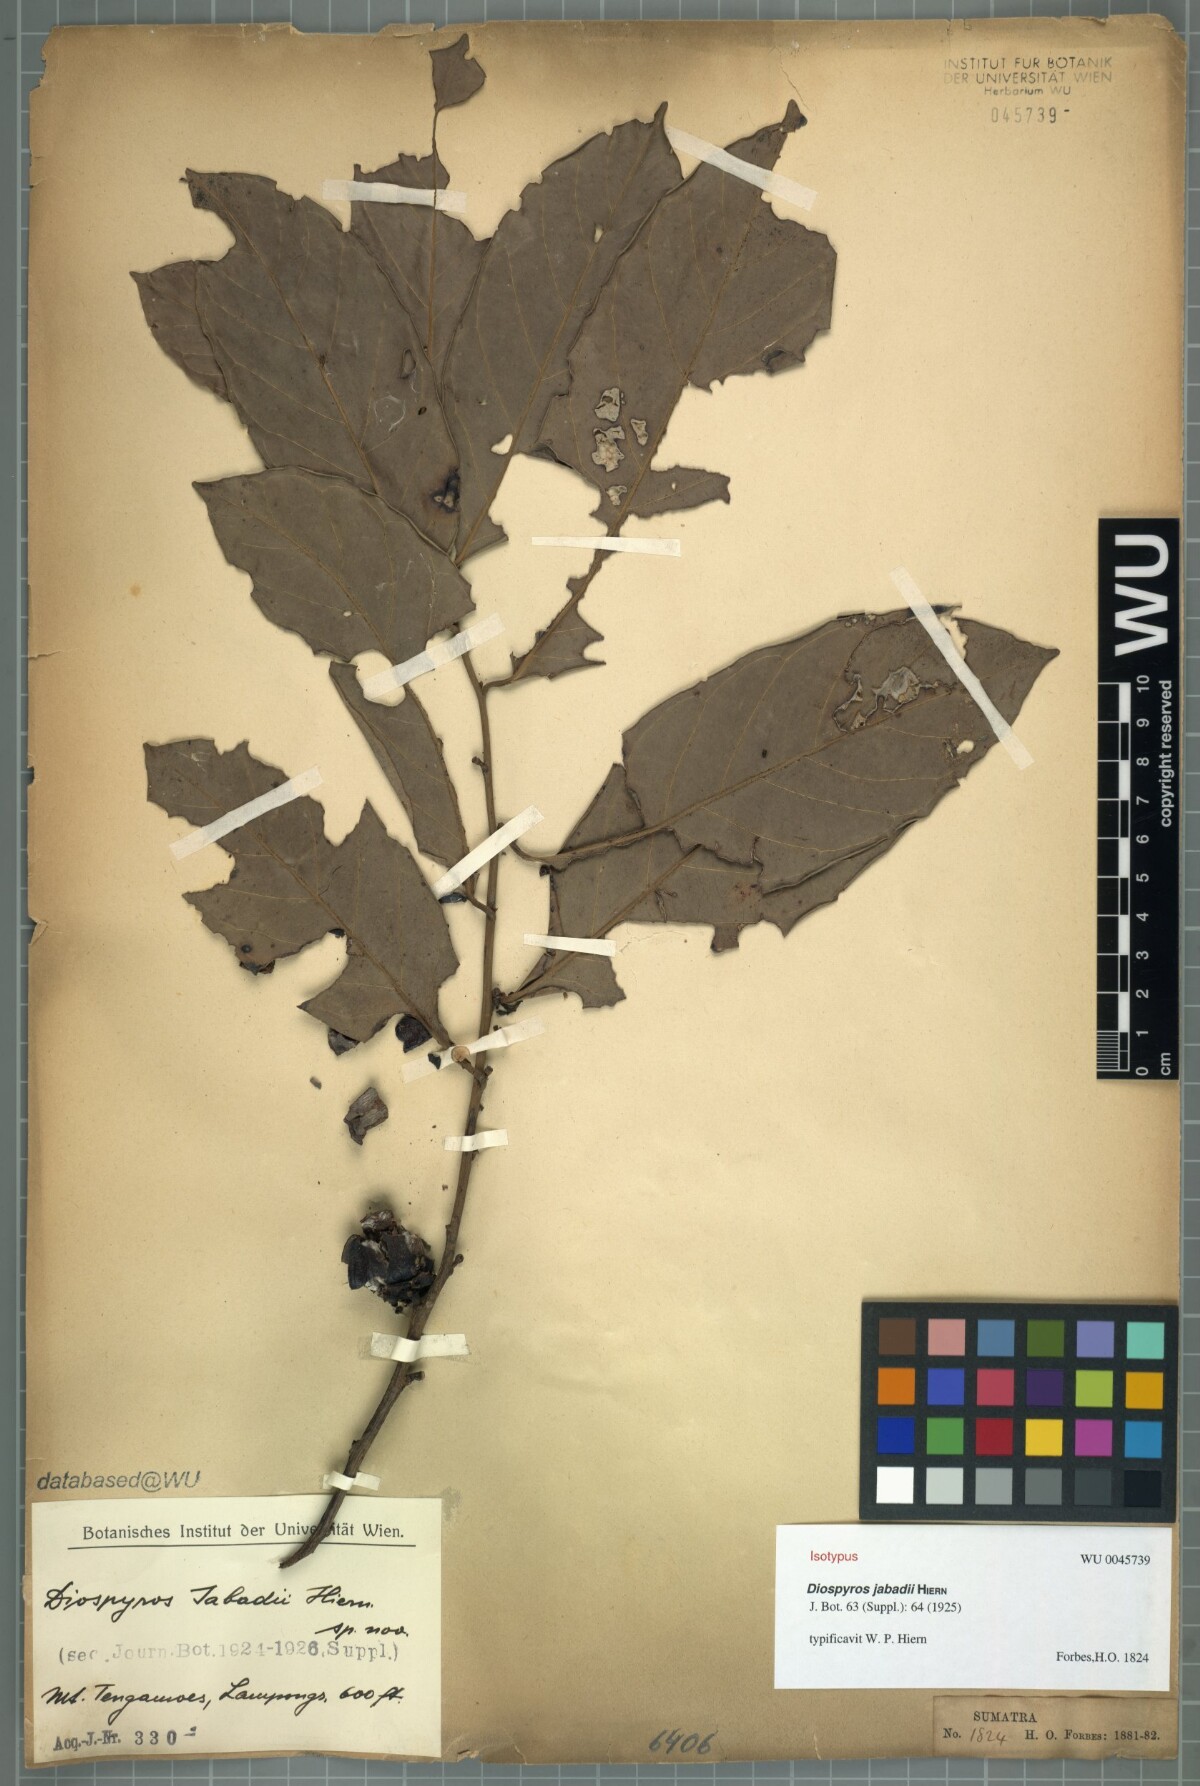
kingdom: Plantae
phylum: Tracheophyta
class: Magnoliopsida
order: Ericales
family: Ebenaceae
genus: Diospyros
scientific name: Diospyros aurea
